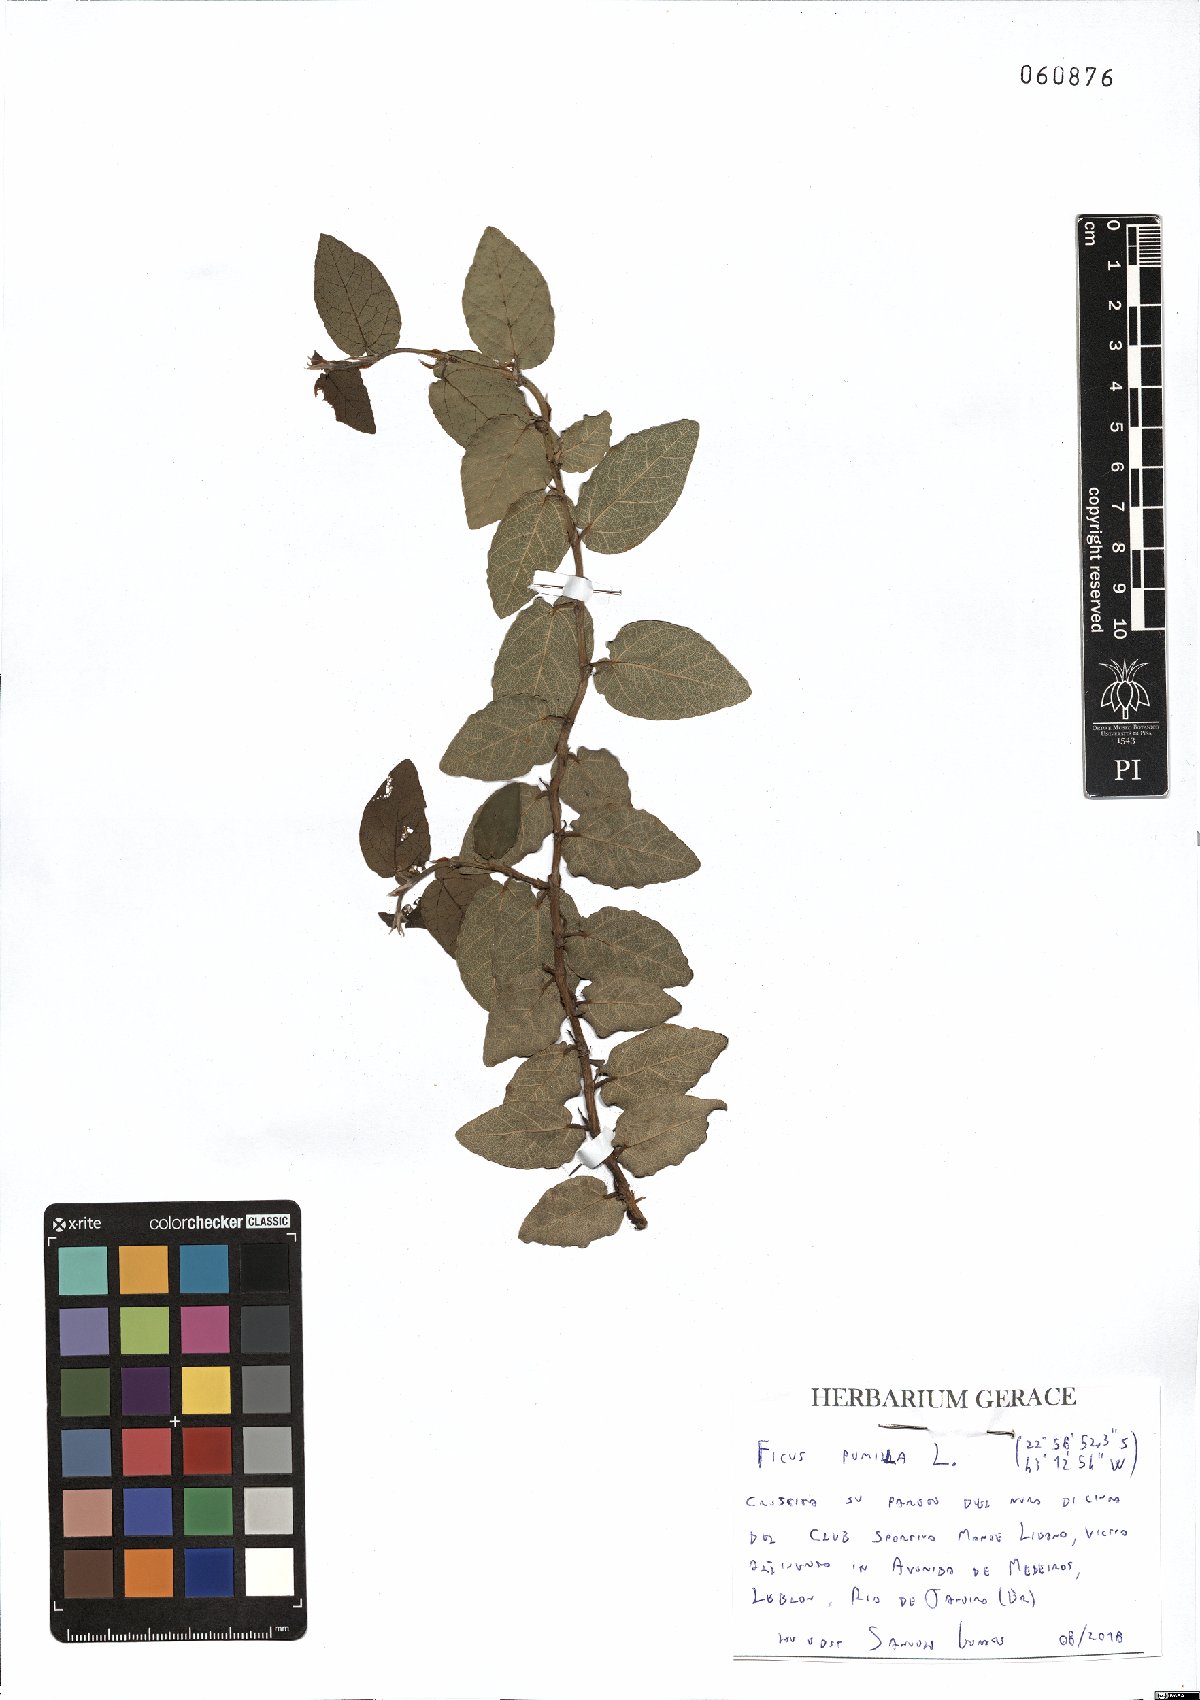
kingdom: Plantae
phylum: Tracheophyta
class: Magnoliopsida
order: Rosales
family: Moraceae
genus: Ficus
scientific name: Ficus pumila
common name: Climbingfig
